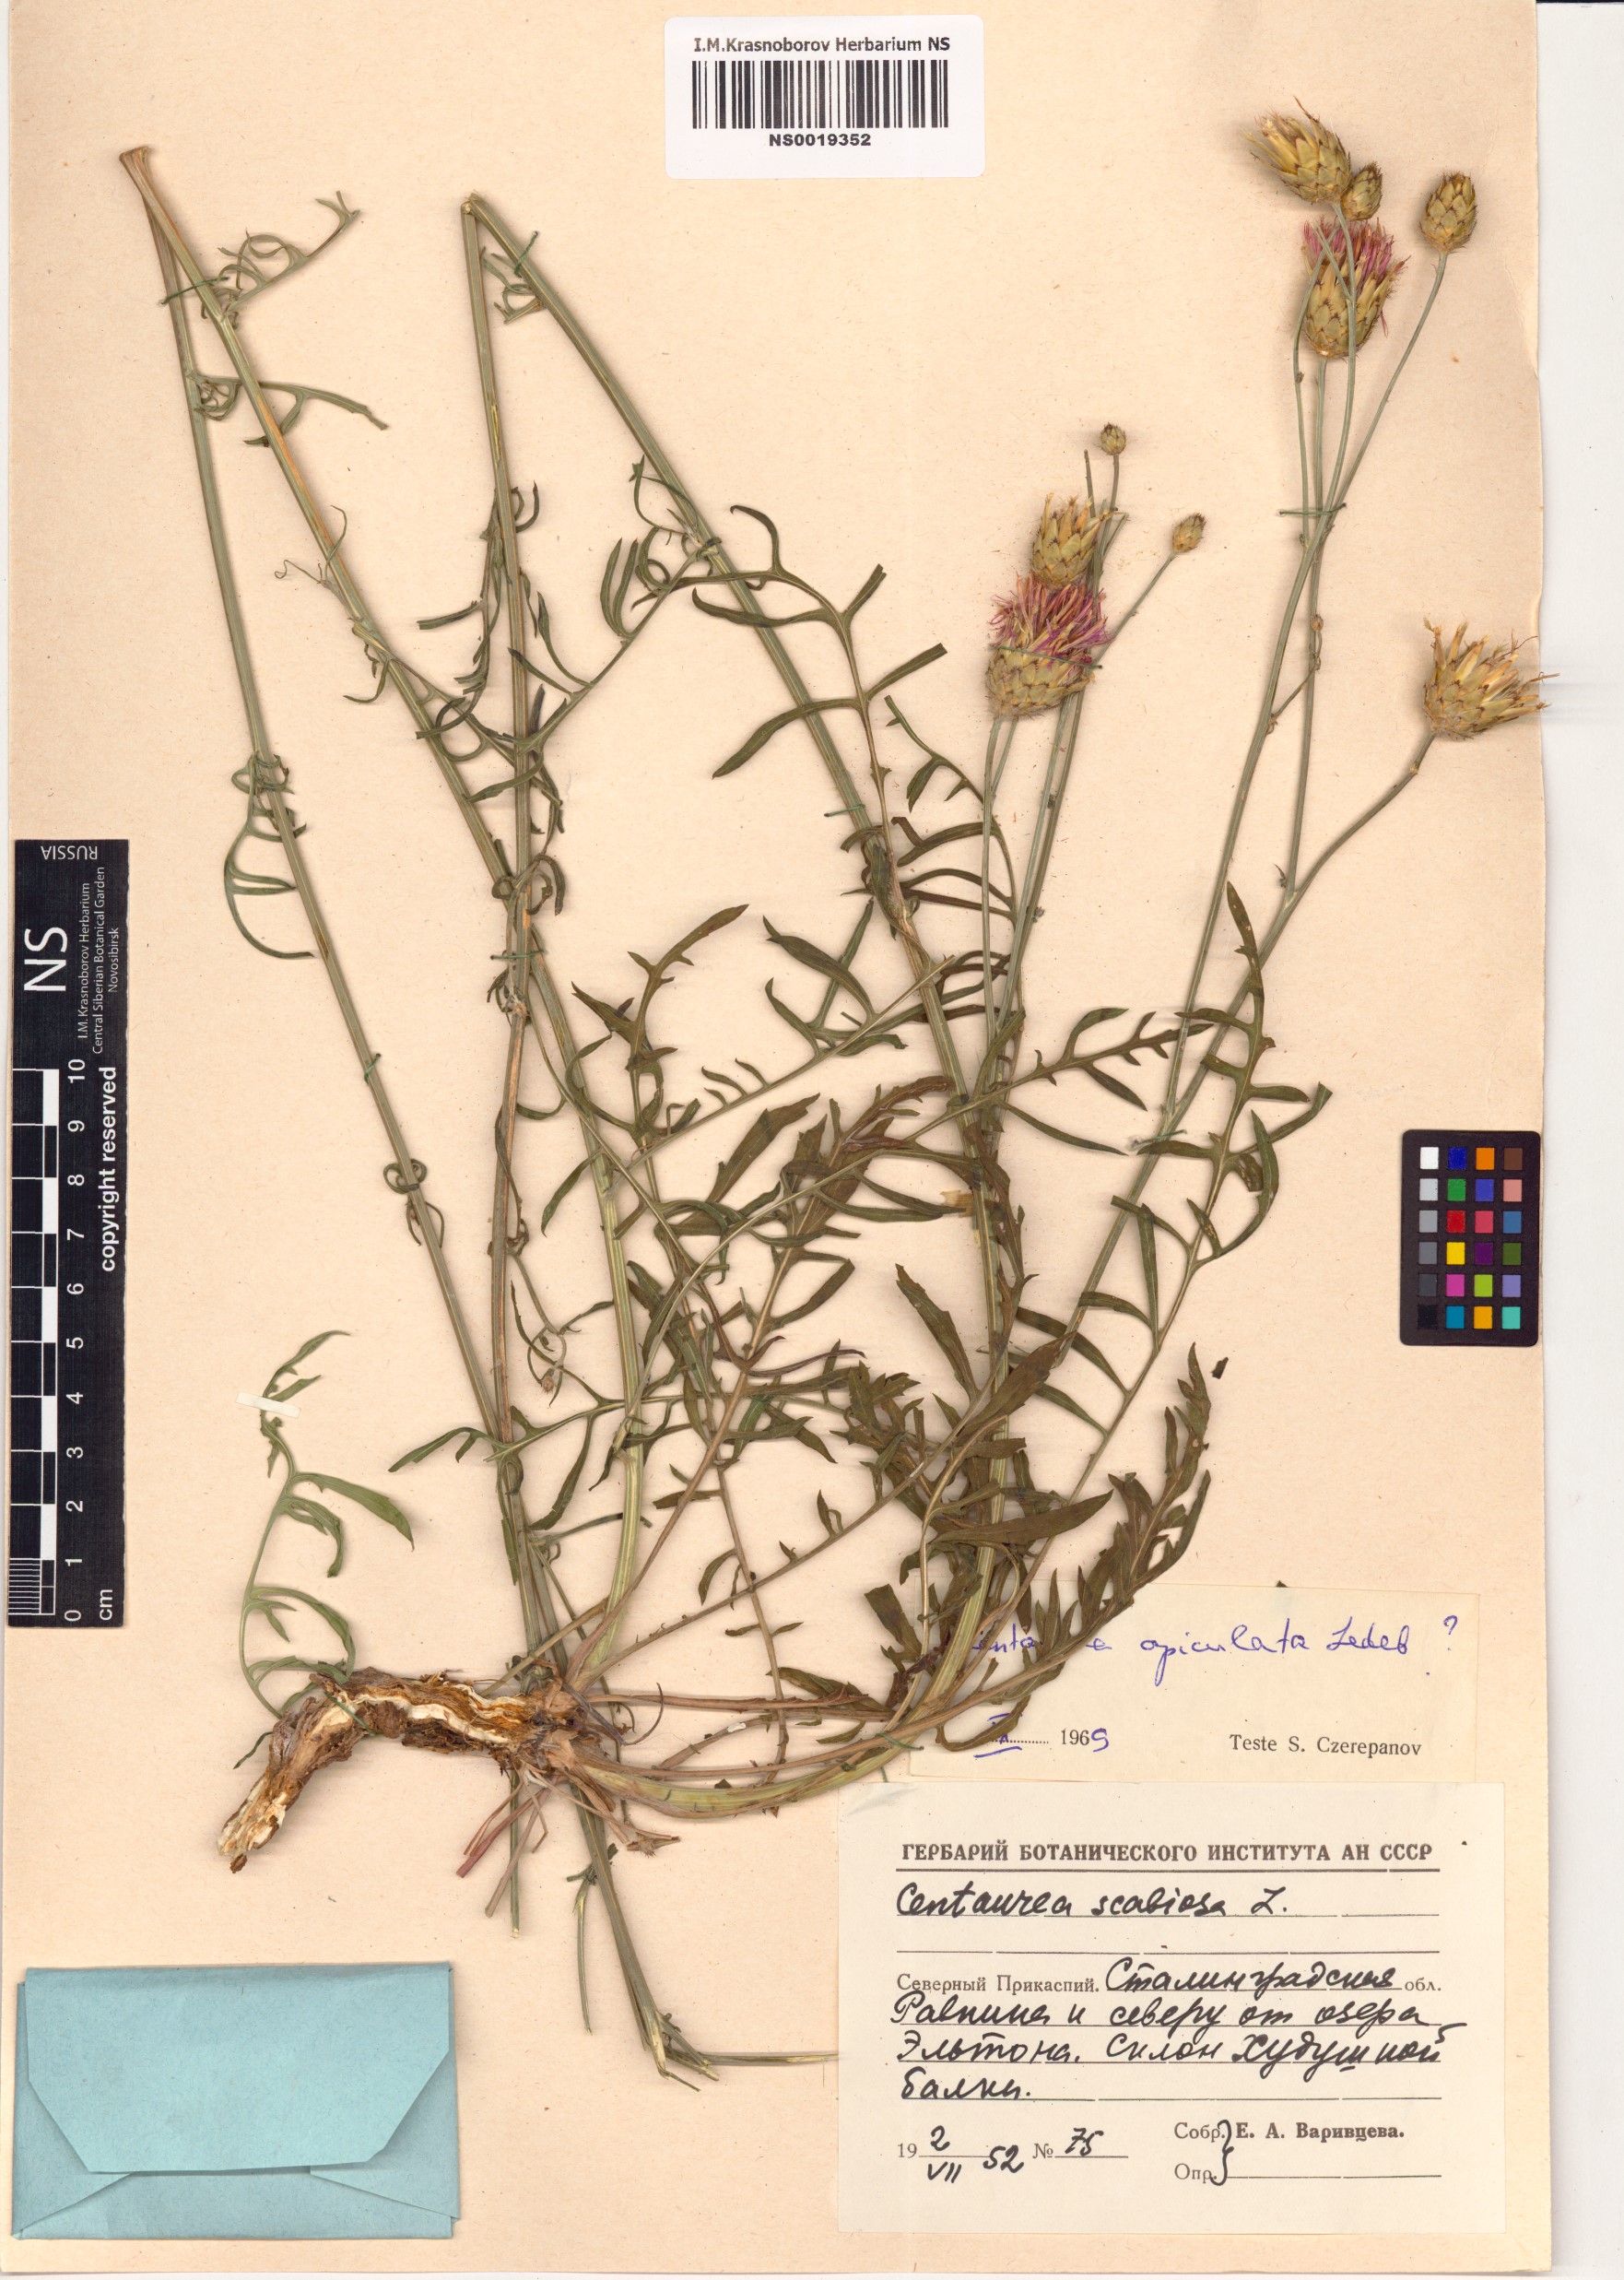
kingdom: Plantae
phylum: Tracheophyta
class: Magnoliopsida
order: Asterales
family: Asteraceae
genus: Centaurea
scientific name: Centaurea apiculata
